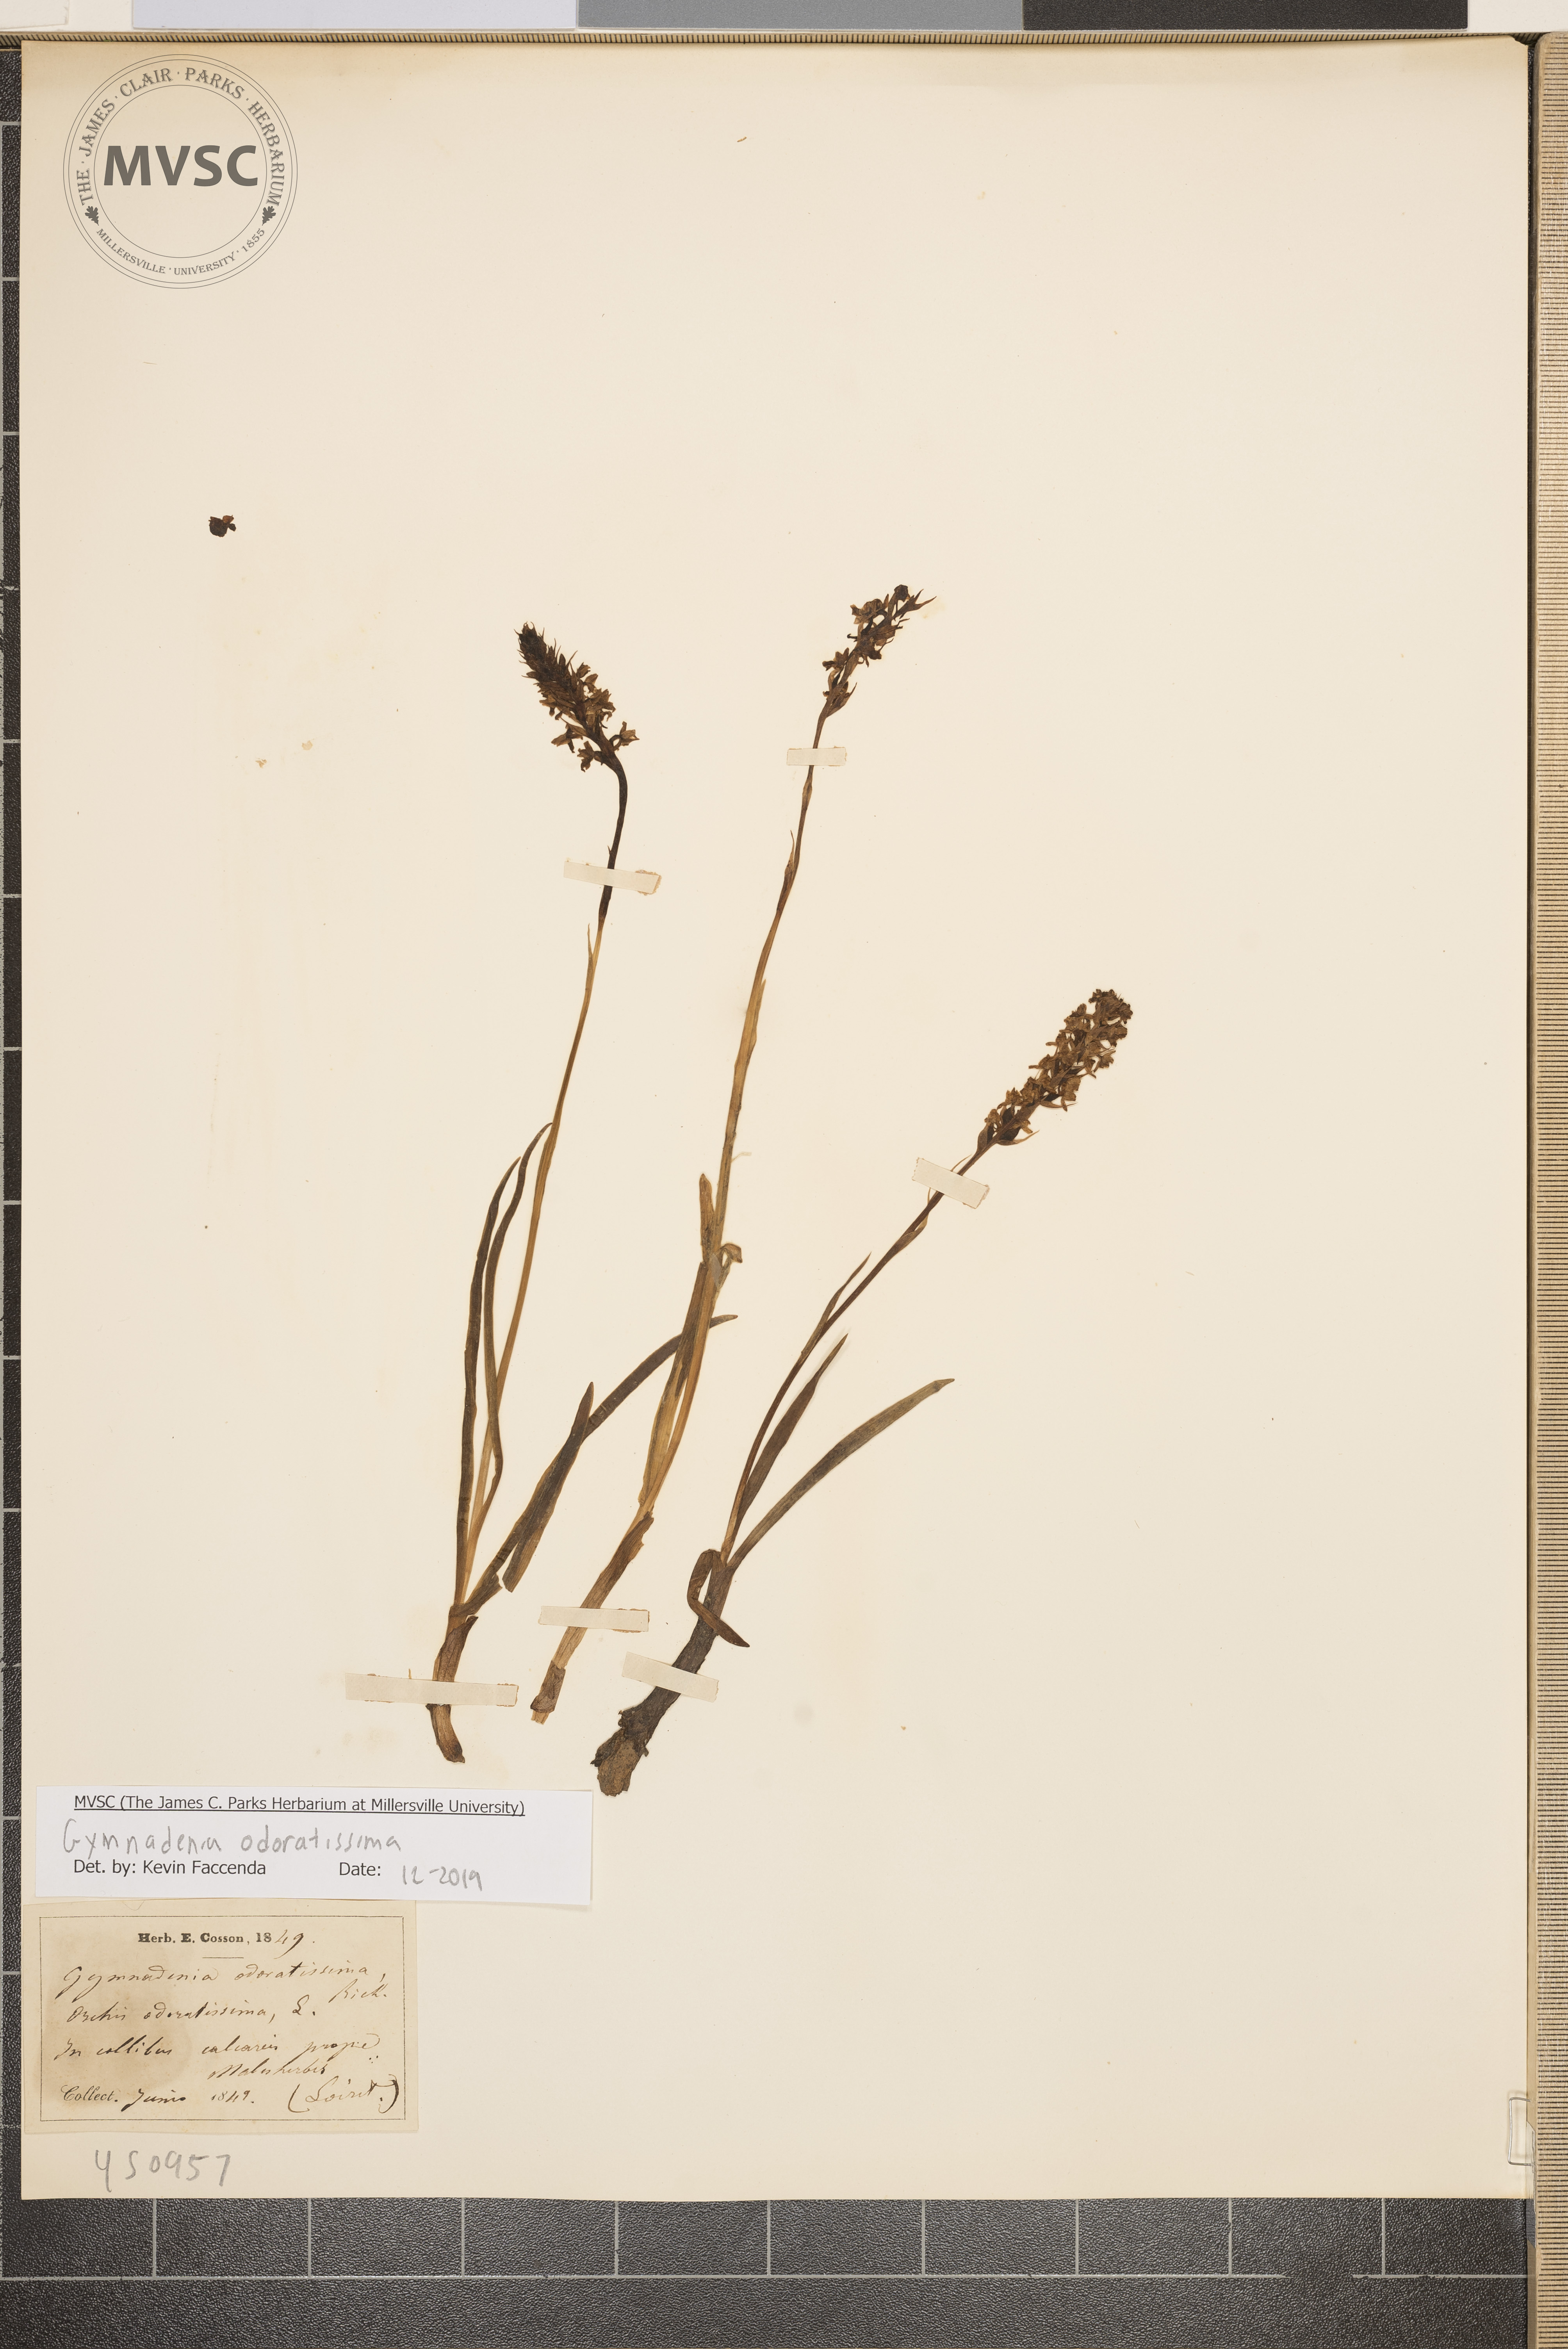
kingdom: Plantae
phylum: Tracheophyta
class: Liliopsida
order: Asparagales
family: Orchidaceae
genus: Gymnadenia
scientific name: Gymnadenia odoratissima
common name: Scented gymnadenia
